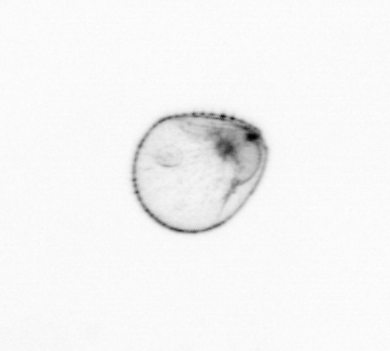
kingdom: Chromista
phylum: Myzozoa
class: Dinophyceae
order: Noctilucales
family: Noctilucaceae
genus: Noctiluca
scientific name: Noctiluca scintillans
